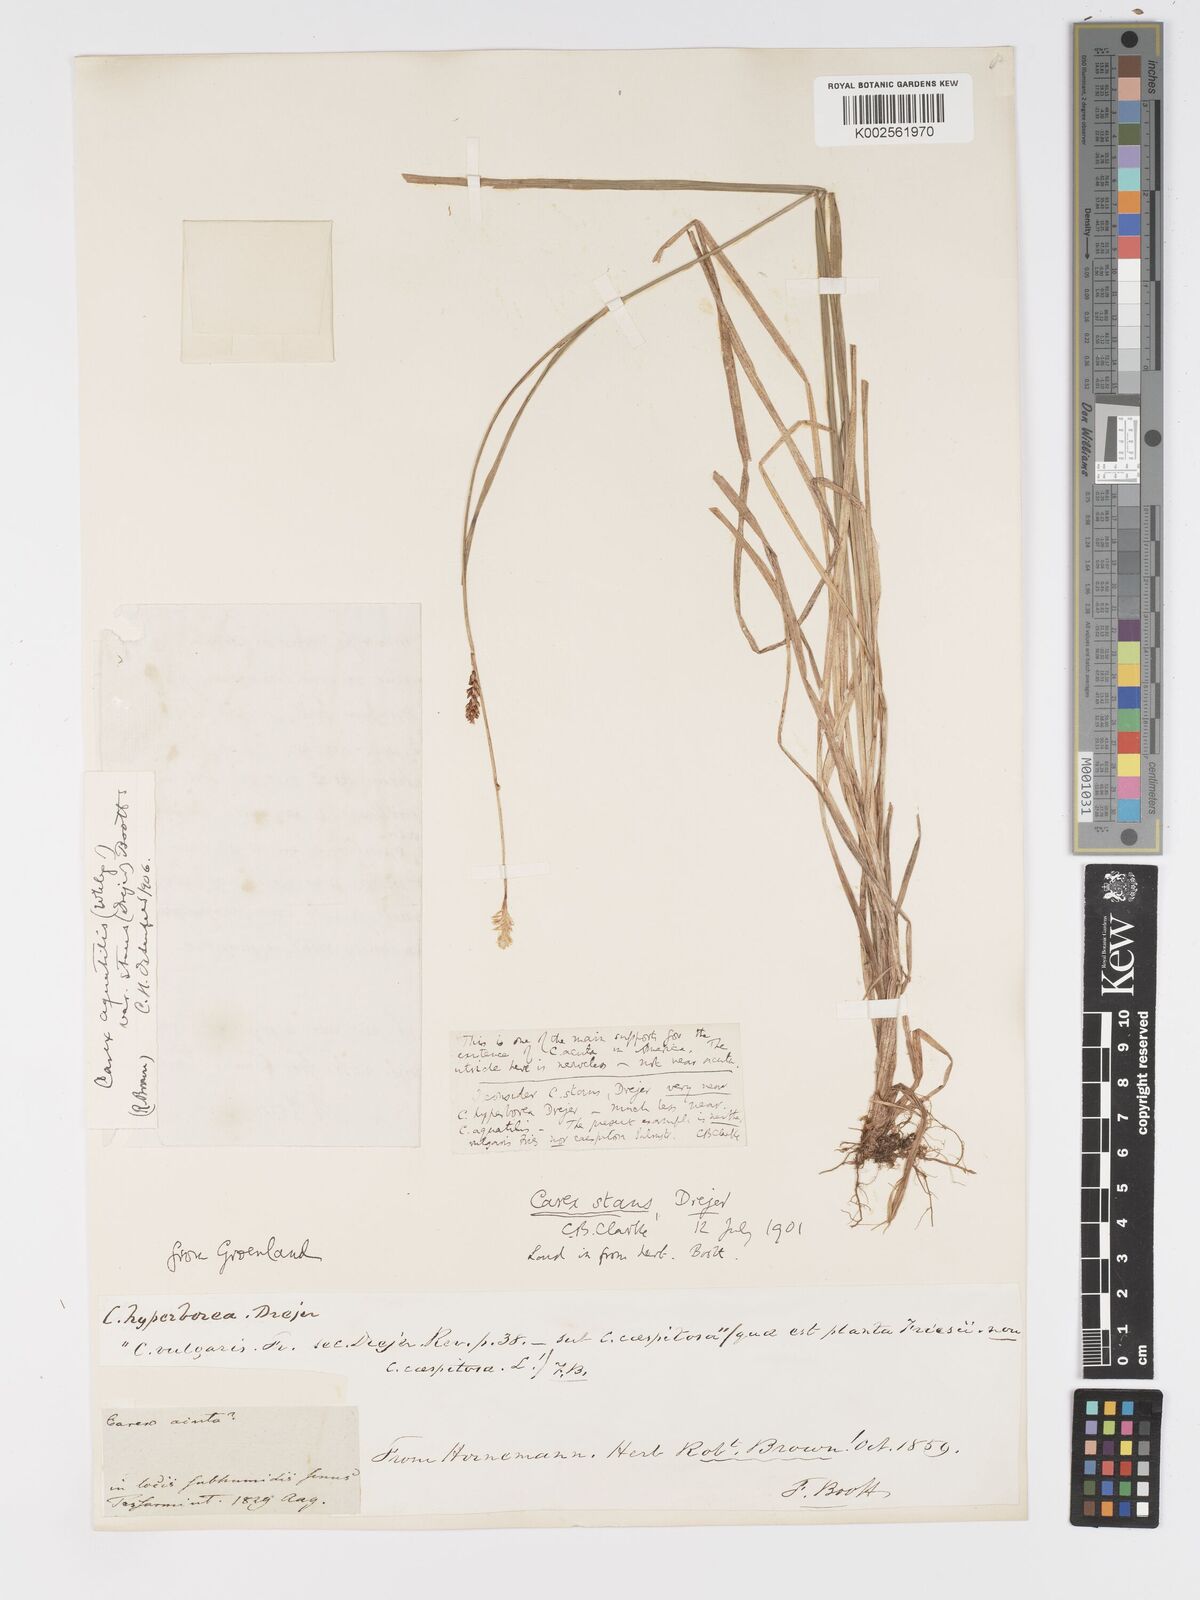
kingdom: Plantae
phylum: Tracheophyta
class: Liliopsida
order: Poales
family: Cyperaceae
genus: Carex
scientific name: Carex bigelowii
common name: Stiff sedge
